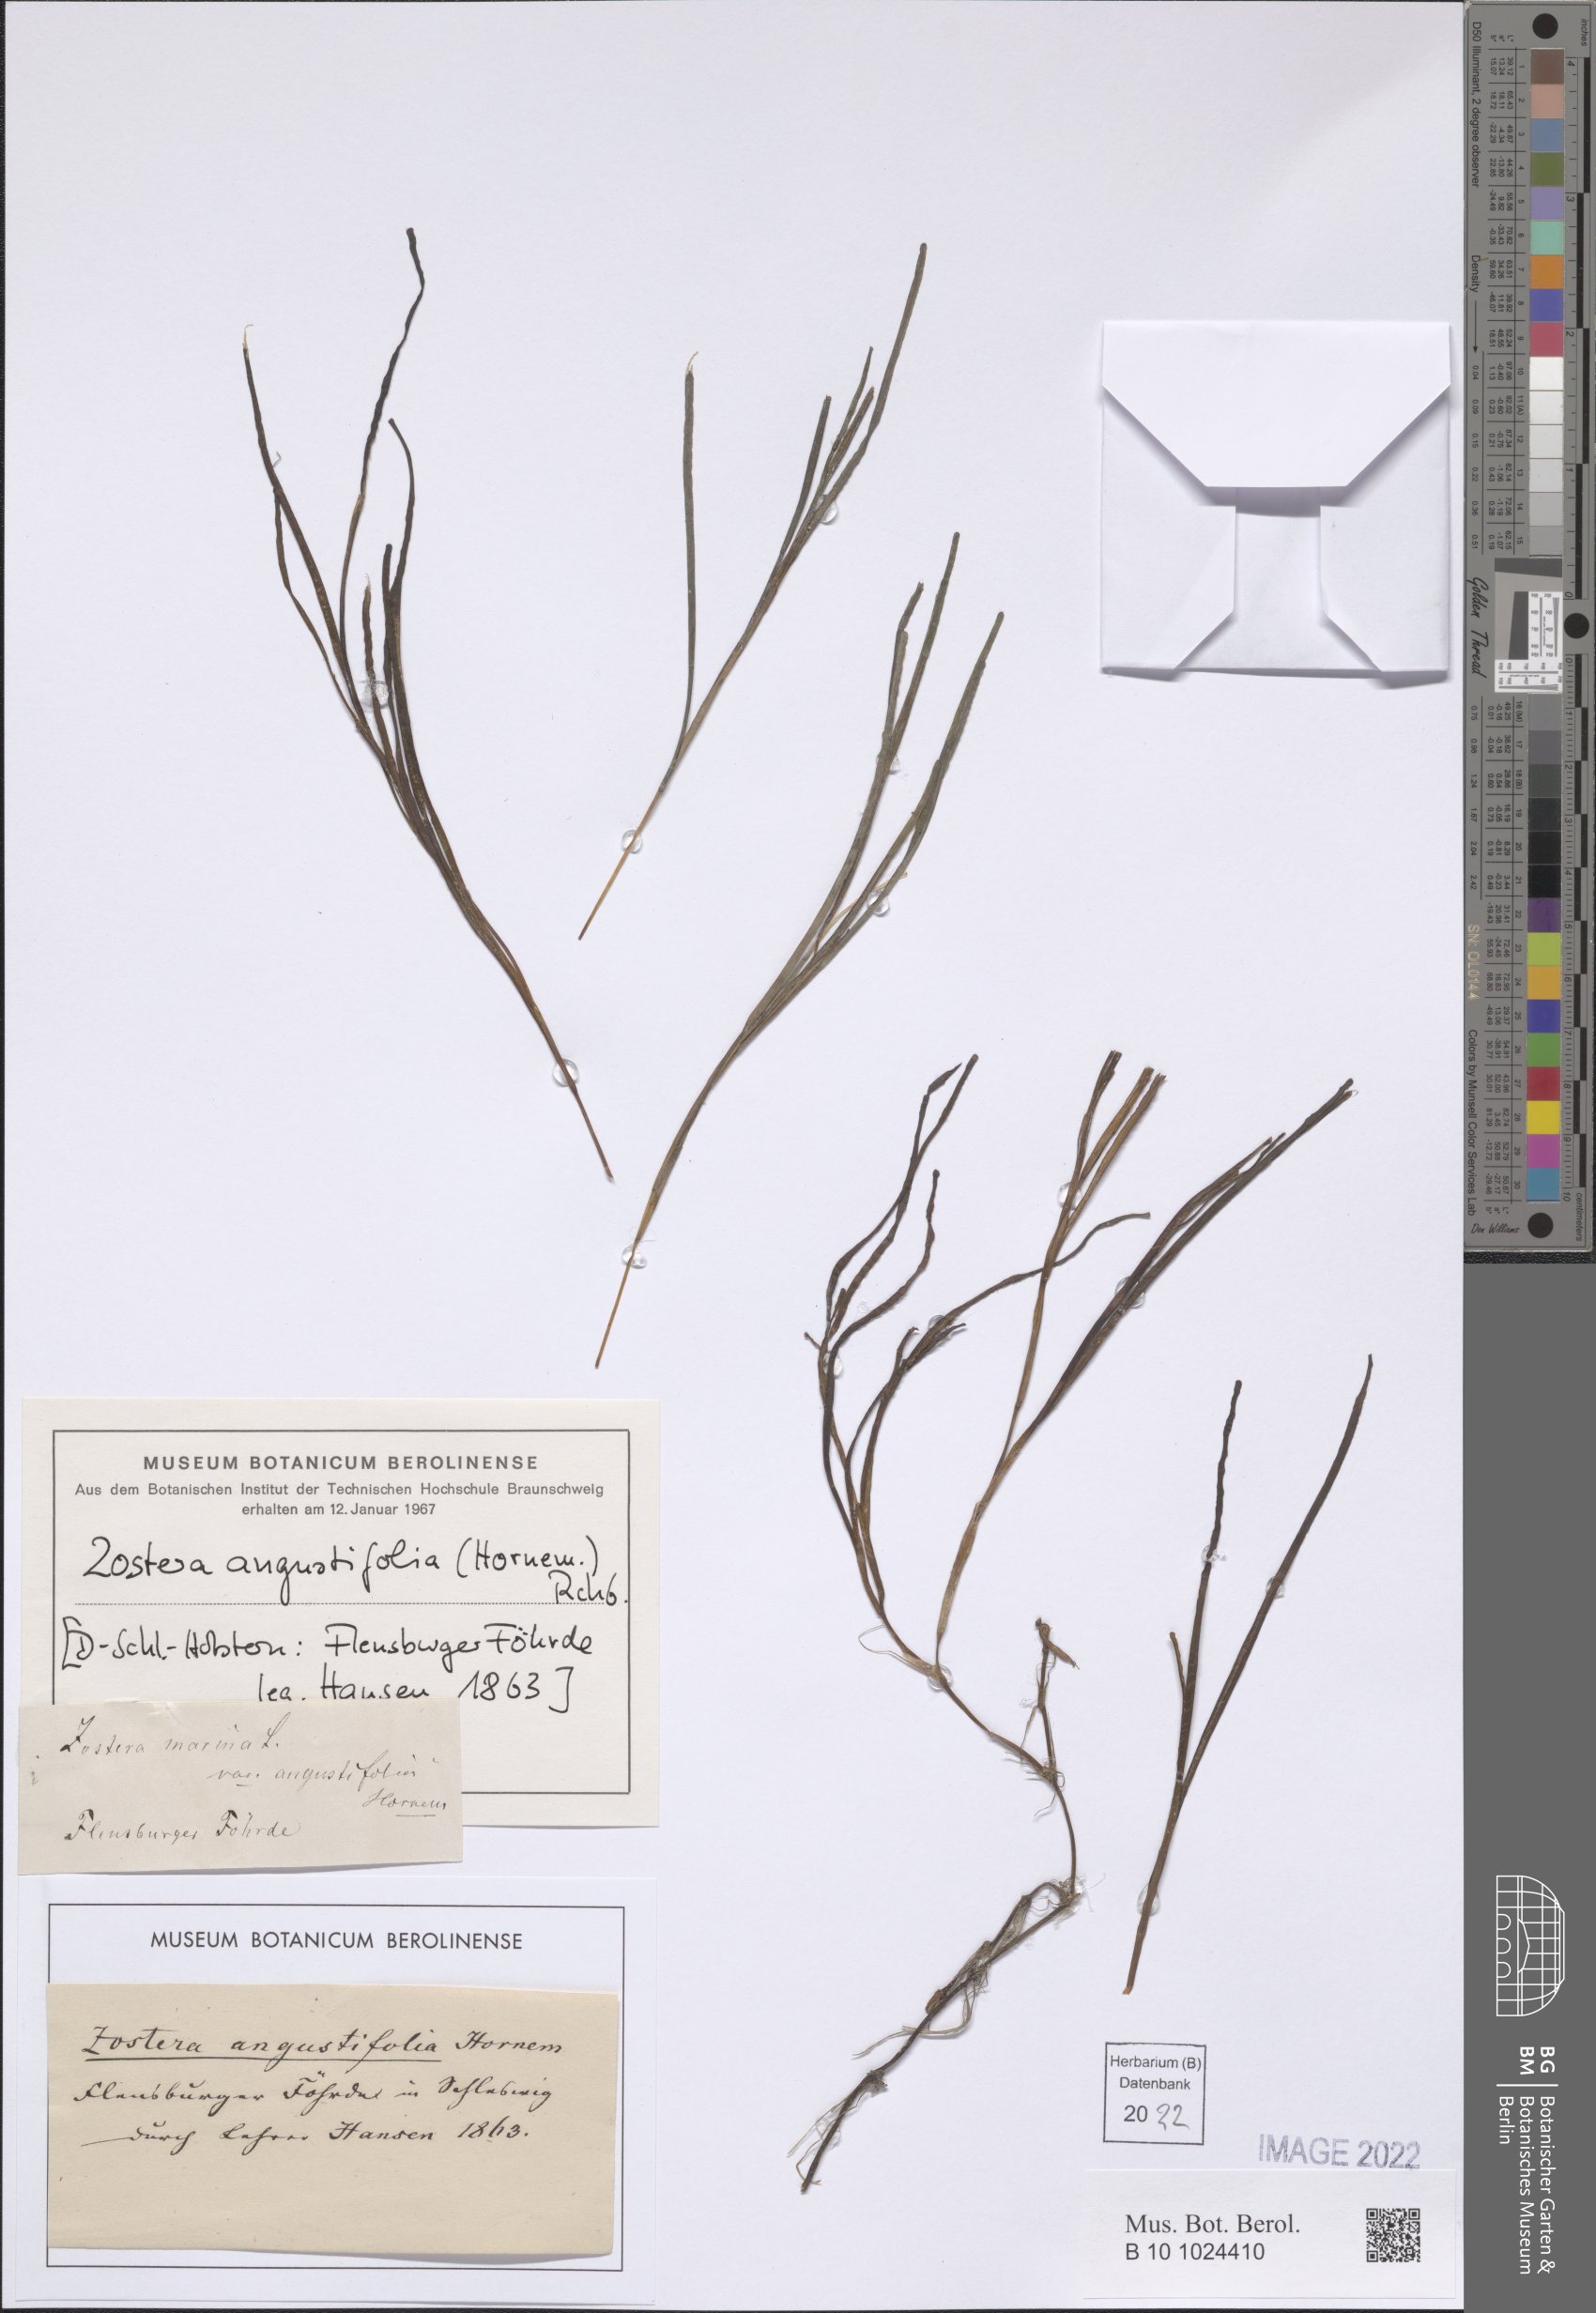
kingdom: Plantae
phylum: Tracheophyta
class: Liliopsida
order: Alismatales
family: Zosteraceae
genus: Zostera
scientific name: Zostera angustifolia
